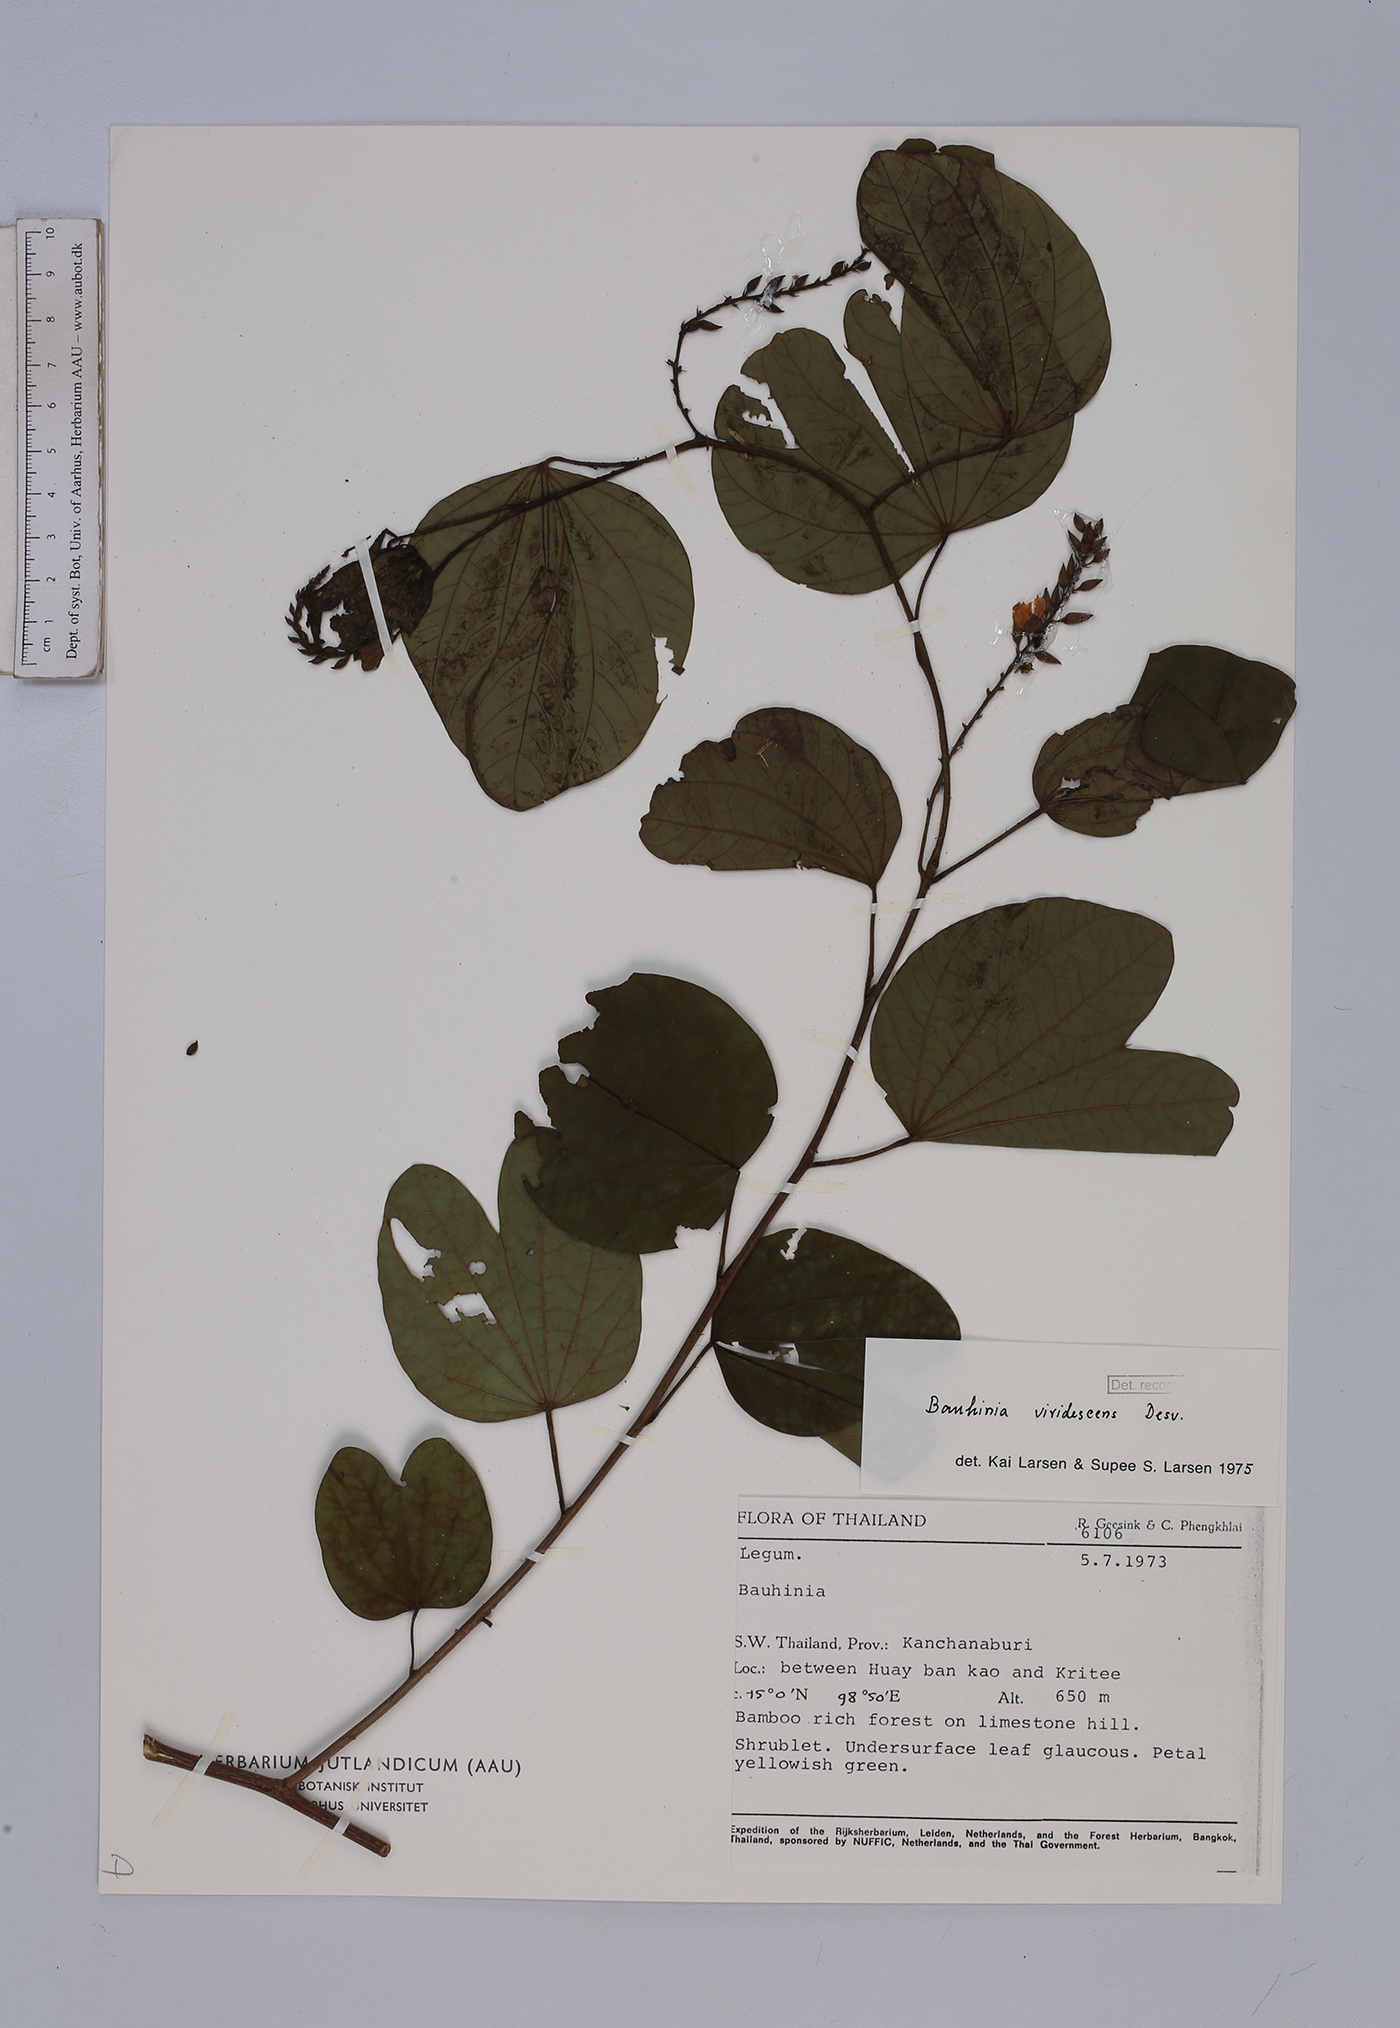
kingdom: Plantae
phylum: Tracheophyta
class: Magnoliopsida
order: Fabales
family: Fabaceae
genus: Bauhinia
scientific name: Bauhinia viridescens
